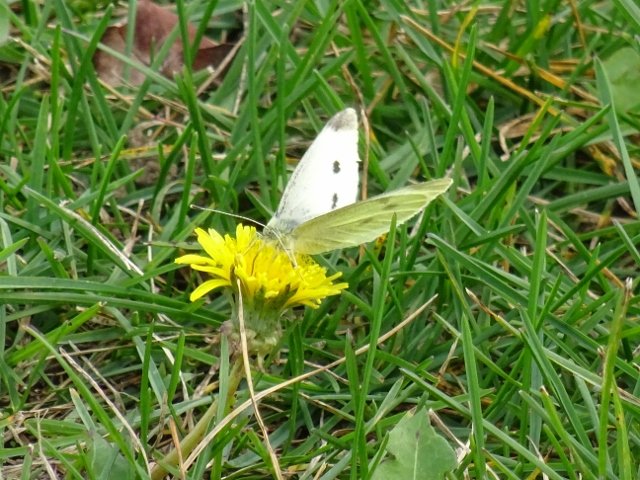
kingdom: Animalia
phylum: Arthropoda
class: Insecta
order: Lepidoptera
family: Pieridae
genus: Pieris
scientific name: Pieris rapae
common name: Cabbage White
